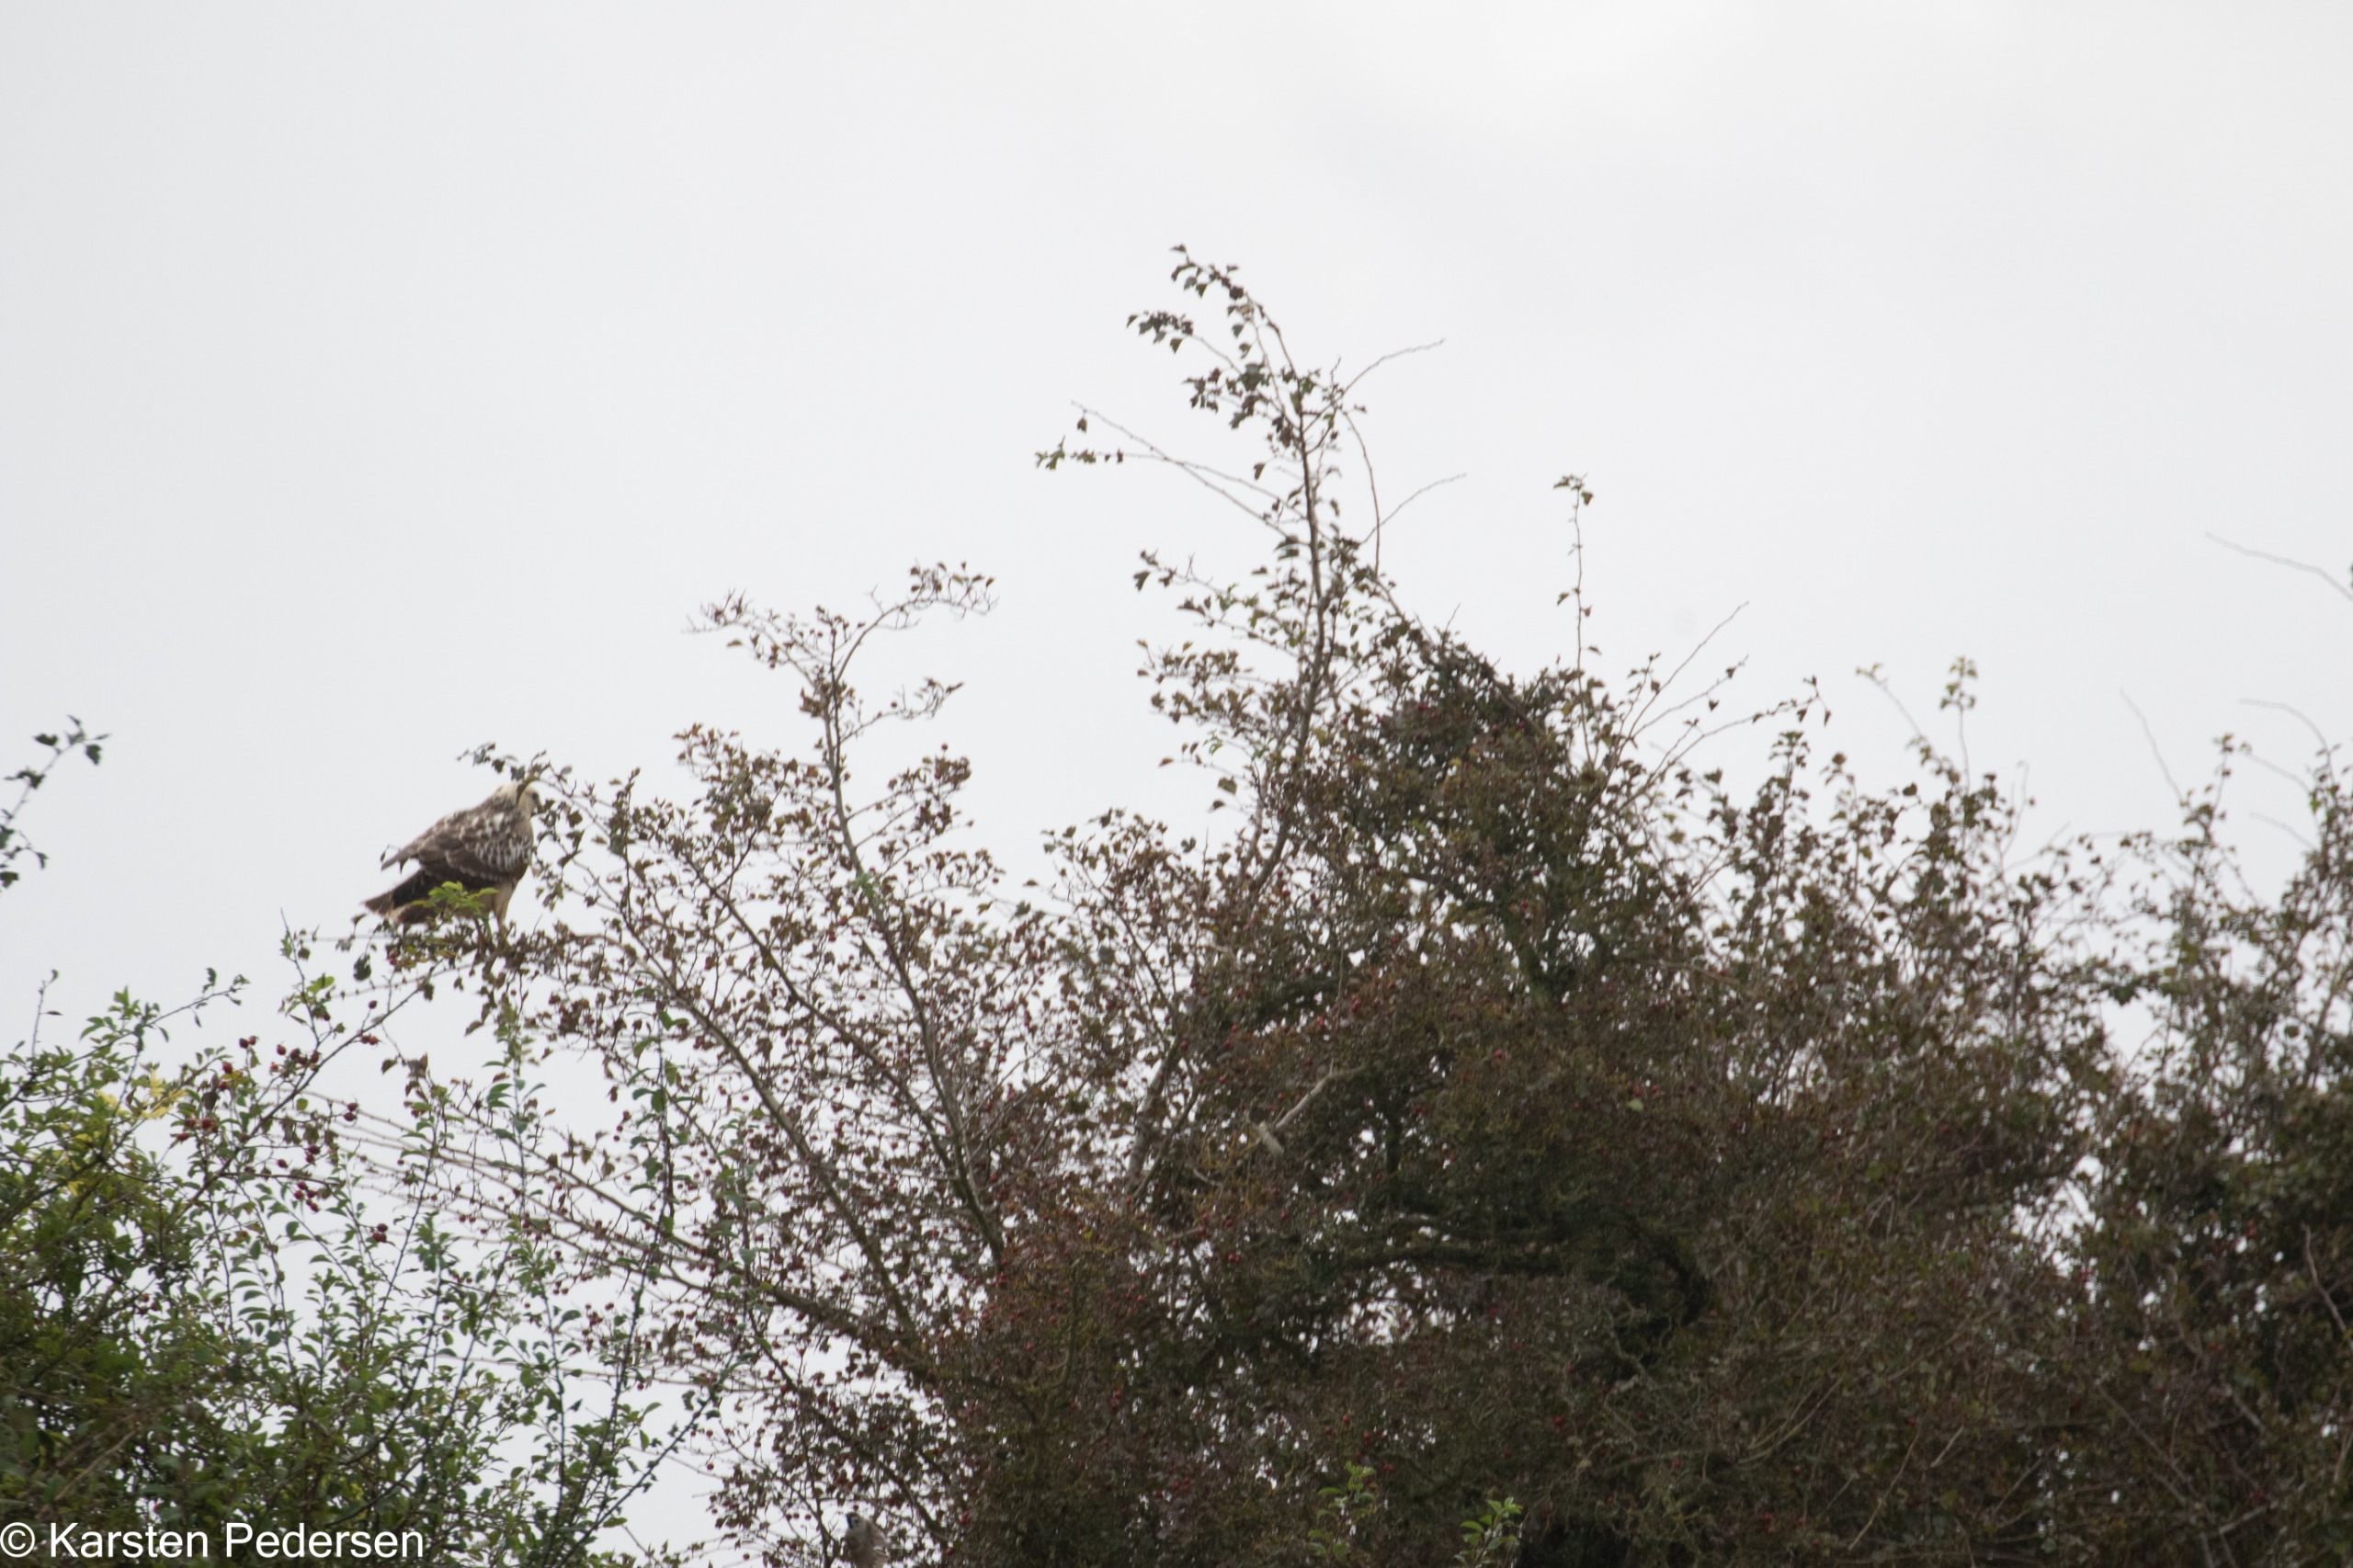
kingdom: Animalia
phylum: Chordata
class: Aves
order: Accipitriformes
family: Accipitridae
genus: Buteo
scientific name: Buteo buteo
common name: Musvåge
